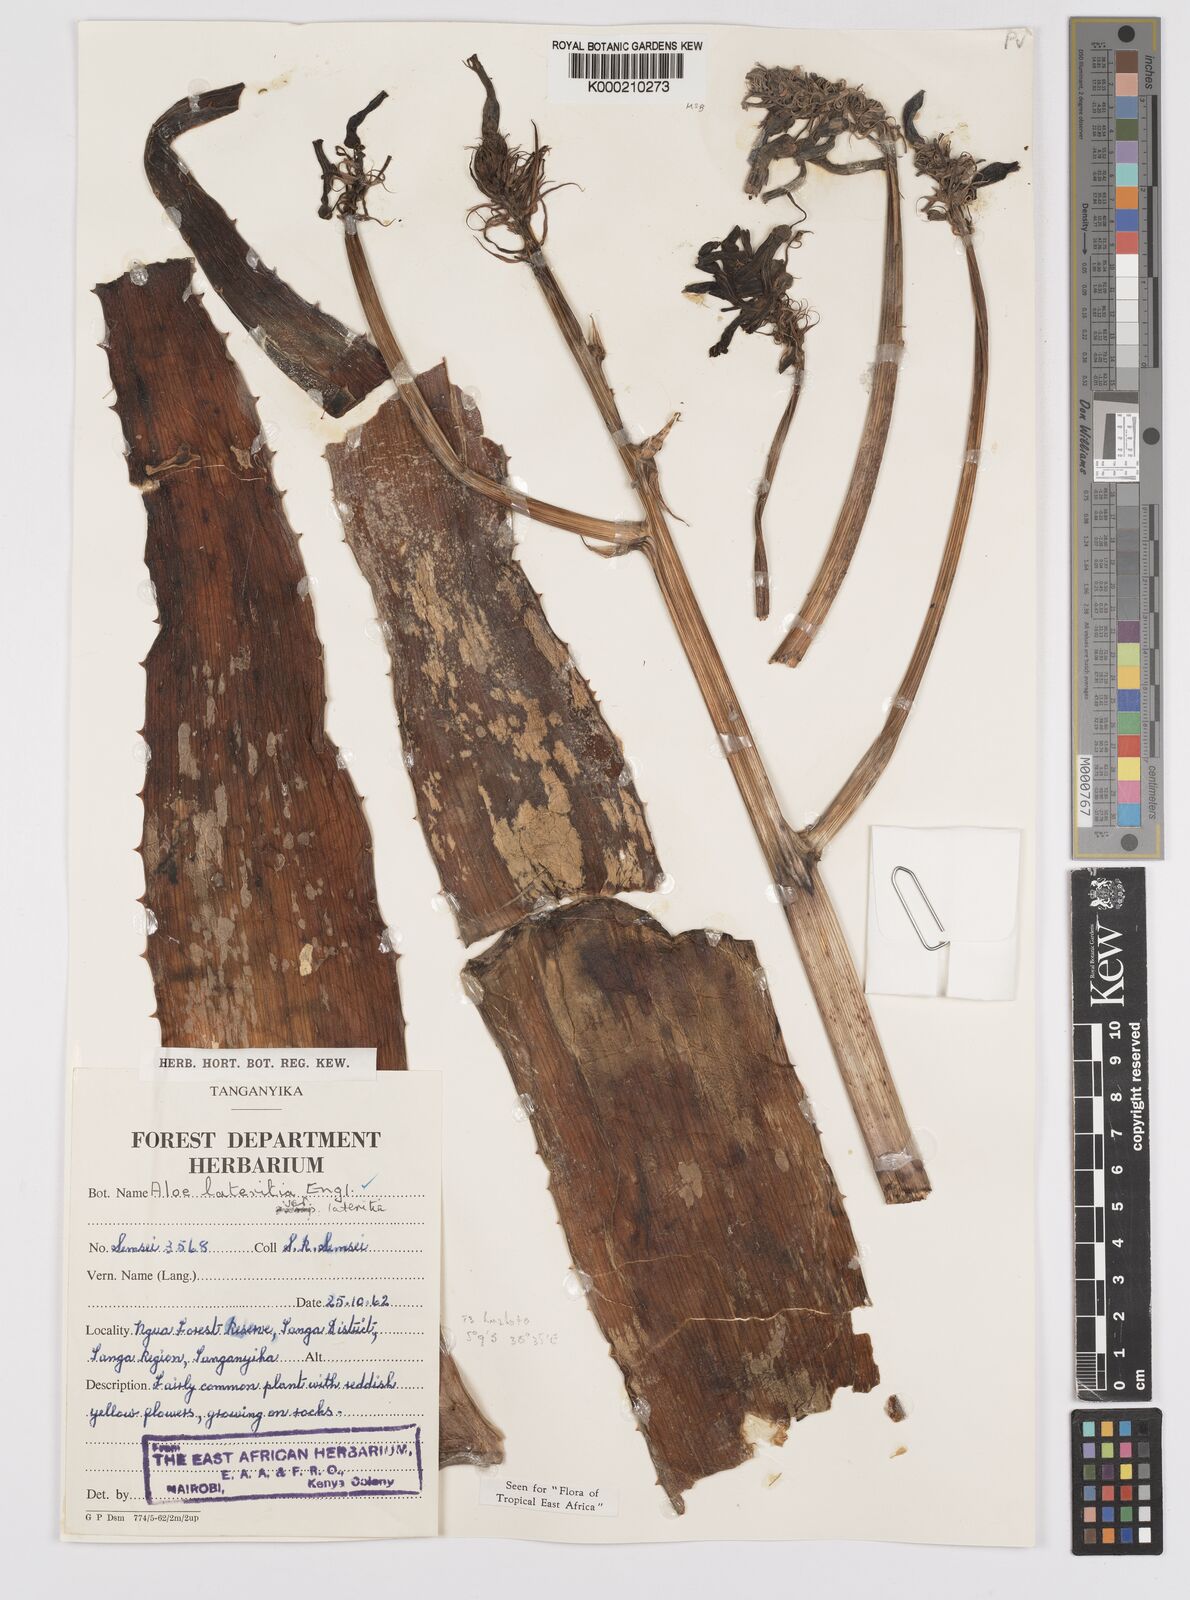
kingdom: Plantae
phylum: Tracheophyta
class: Liliopsida
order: Asparagales
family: Asphodelaceae
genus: Aloe
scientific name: Aloe lateritia
